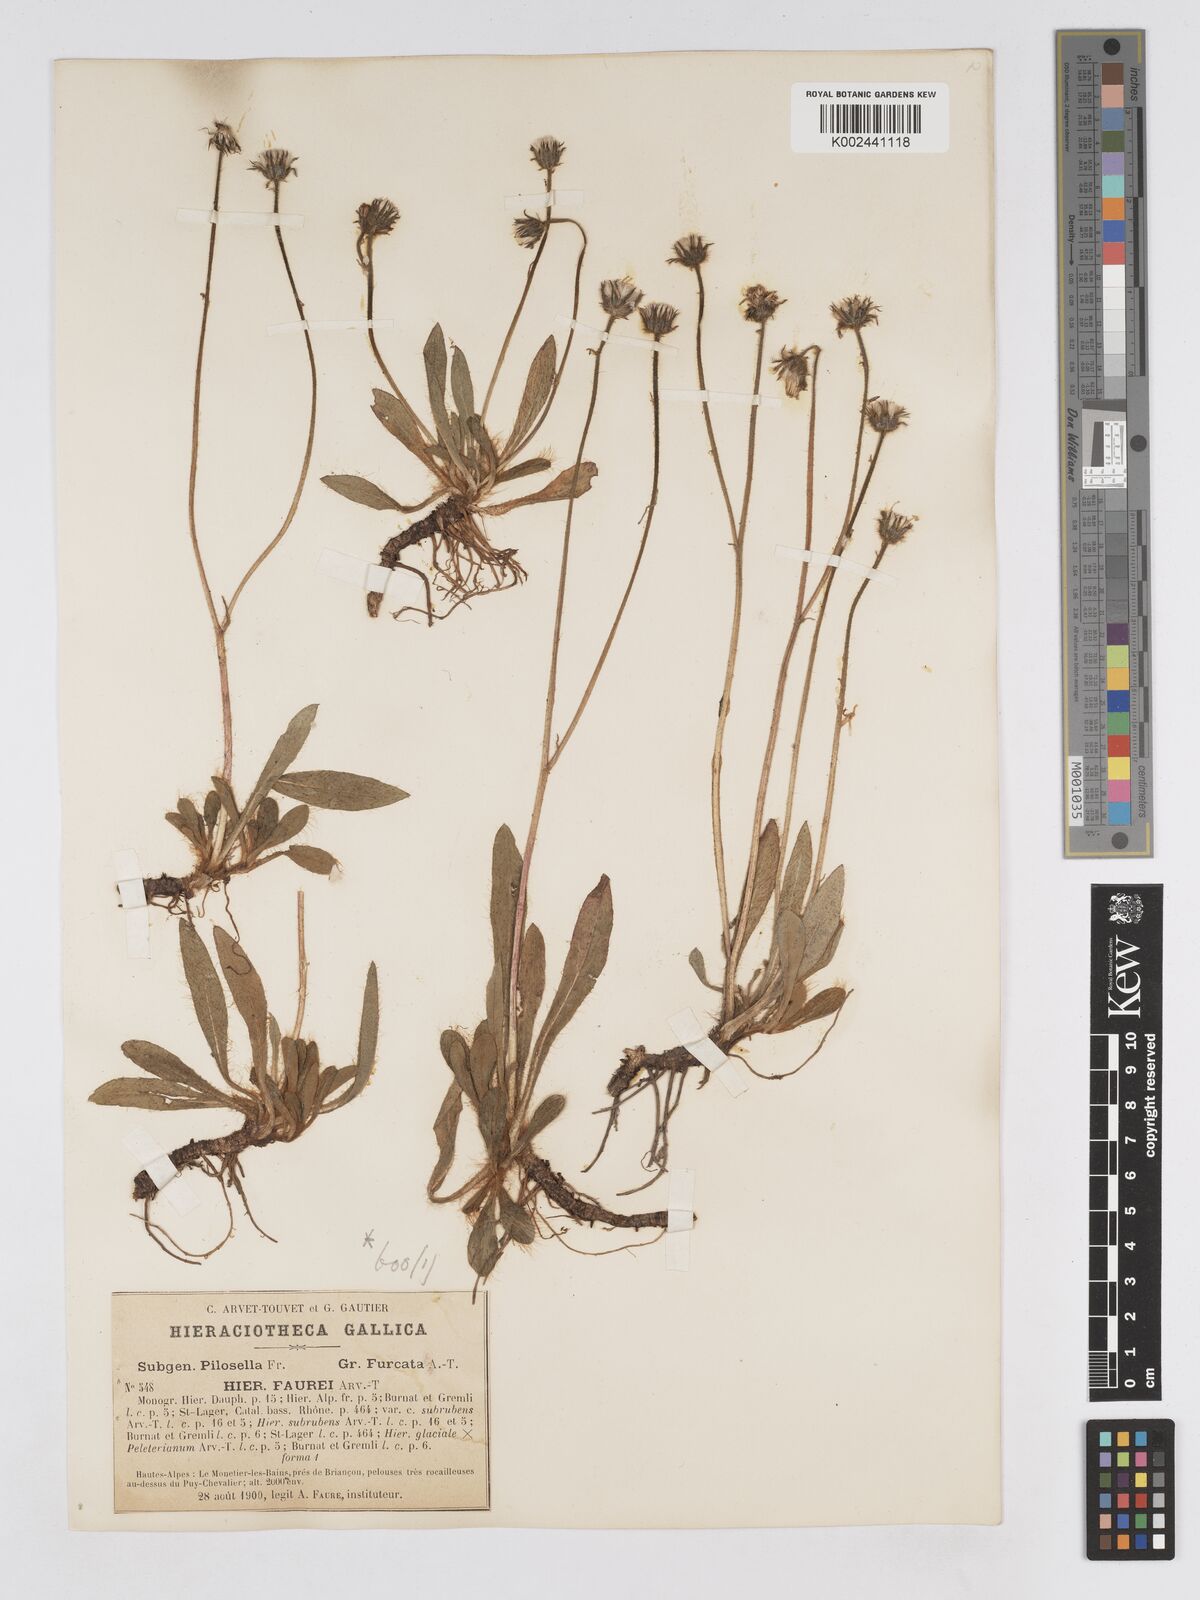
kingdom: Plantae
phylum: Tracheophyta
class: Magnoliopsida
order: Asterales
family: Asteraceae
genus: Pilosella
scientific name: Pilosella subrubens
